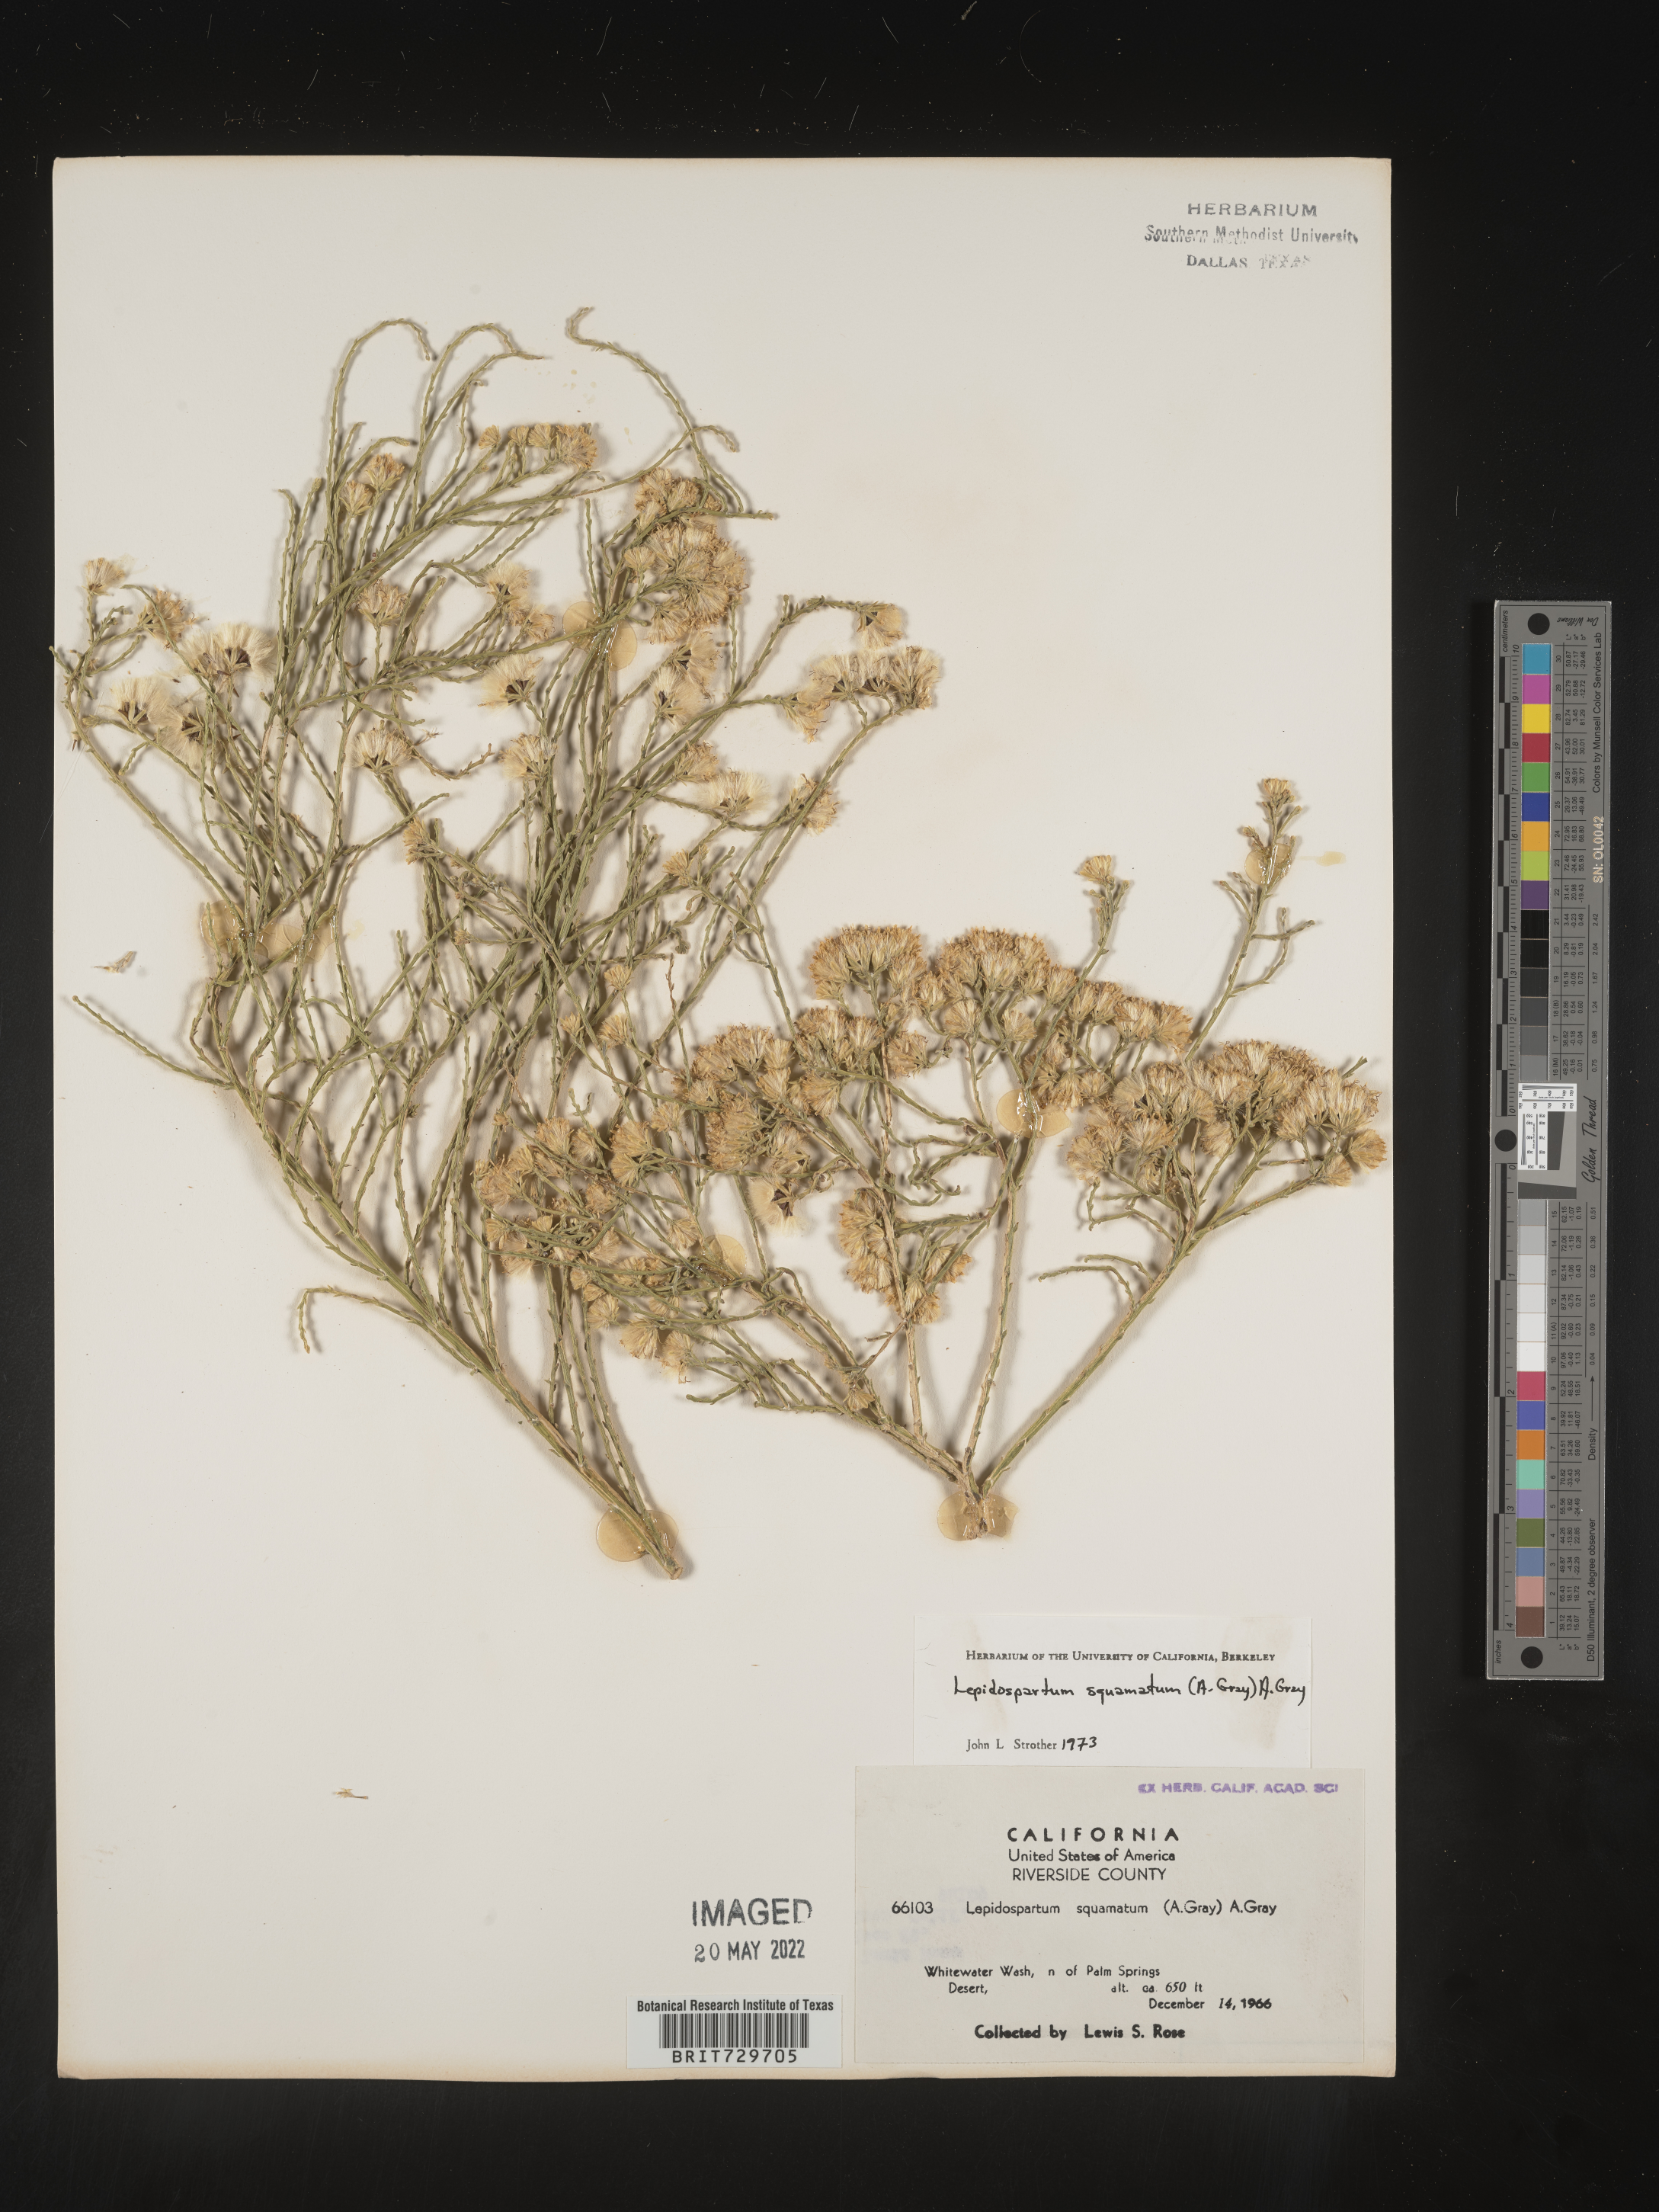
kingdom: Plantae
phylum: Tracheophyta
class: Magnoliopsida
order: Asterales
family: Asteraceae
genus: Lepidospartum
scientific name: Lepidospartum squamatum
